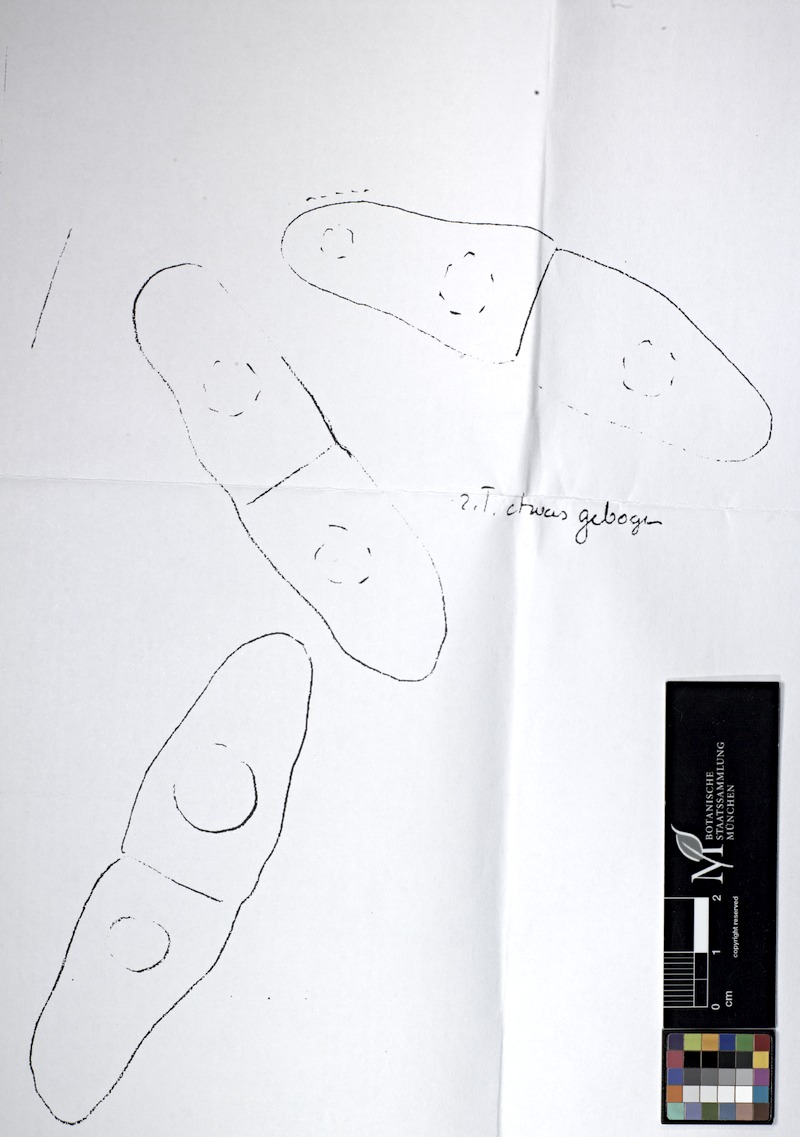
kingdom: Fungi
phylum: Ascomycota
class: Dothideomycetes
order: Trypetheliales
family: Polycoccaceae
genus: Polycoccum
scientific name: Polycoccum perrugosae
